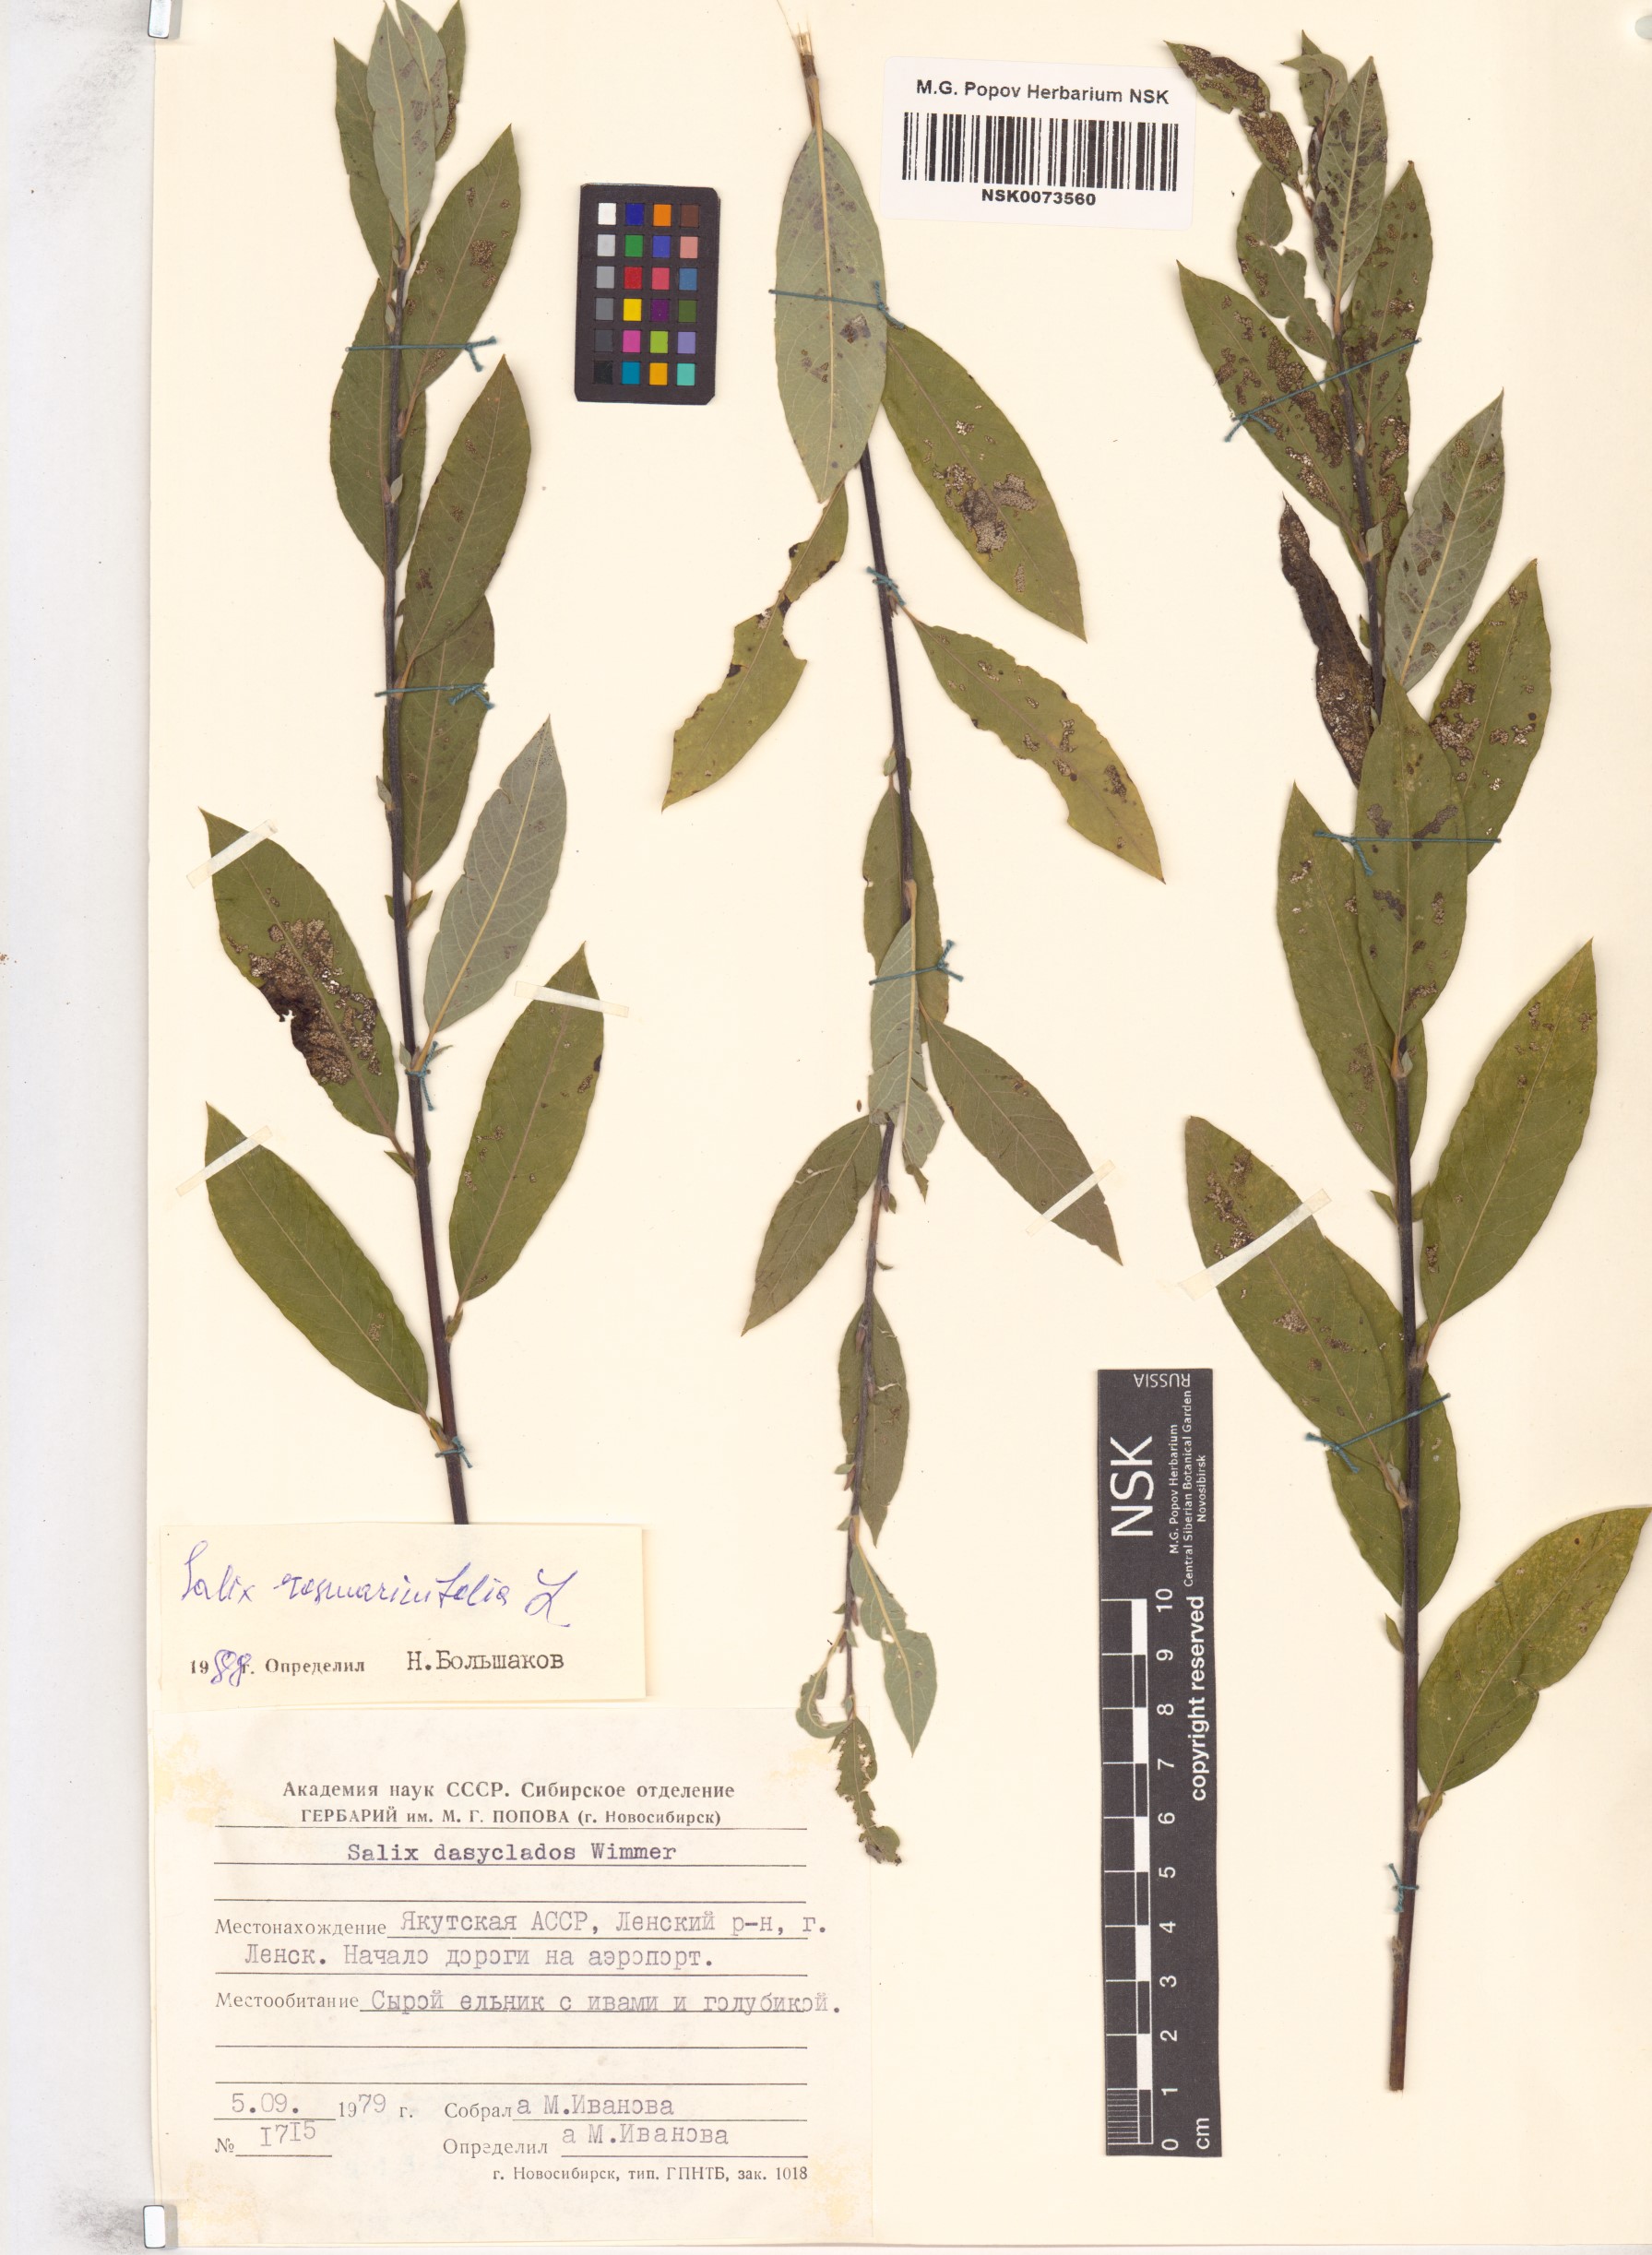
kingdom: Plantae
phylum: Tracheophyta
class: Magnoliopsida
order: Malpighiales
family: Salicaceae
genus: Salix
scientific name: Salix rosmarinifolia
